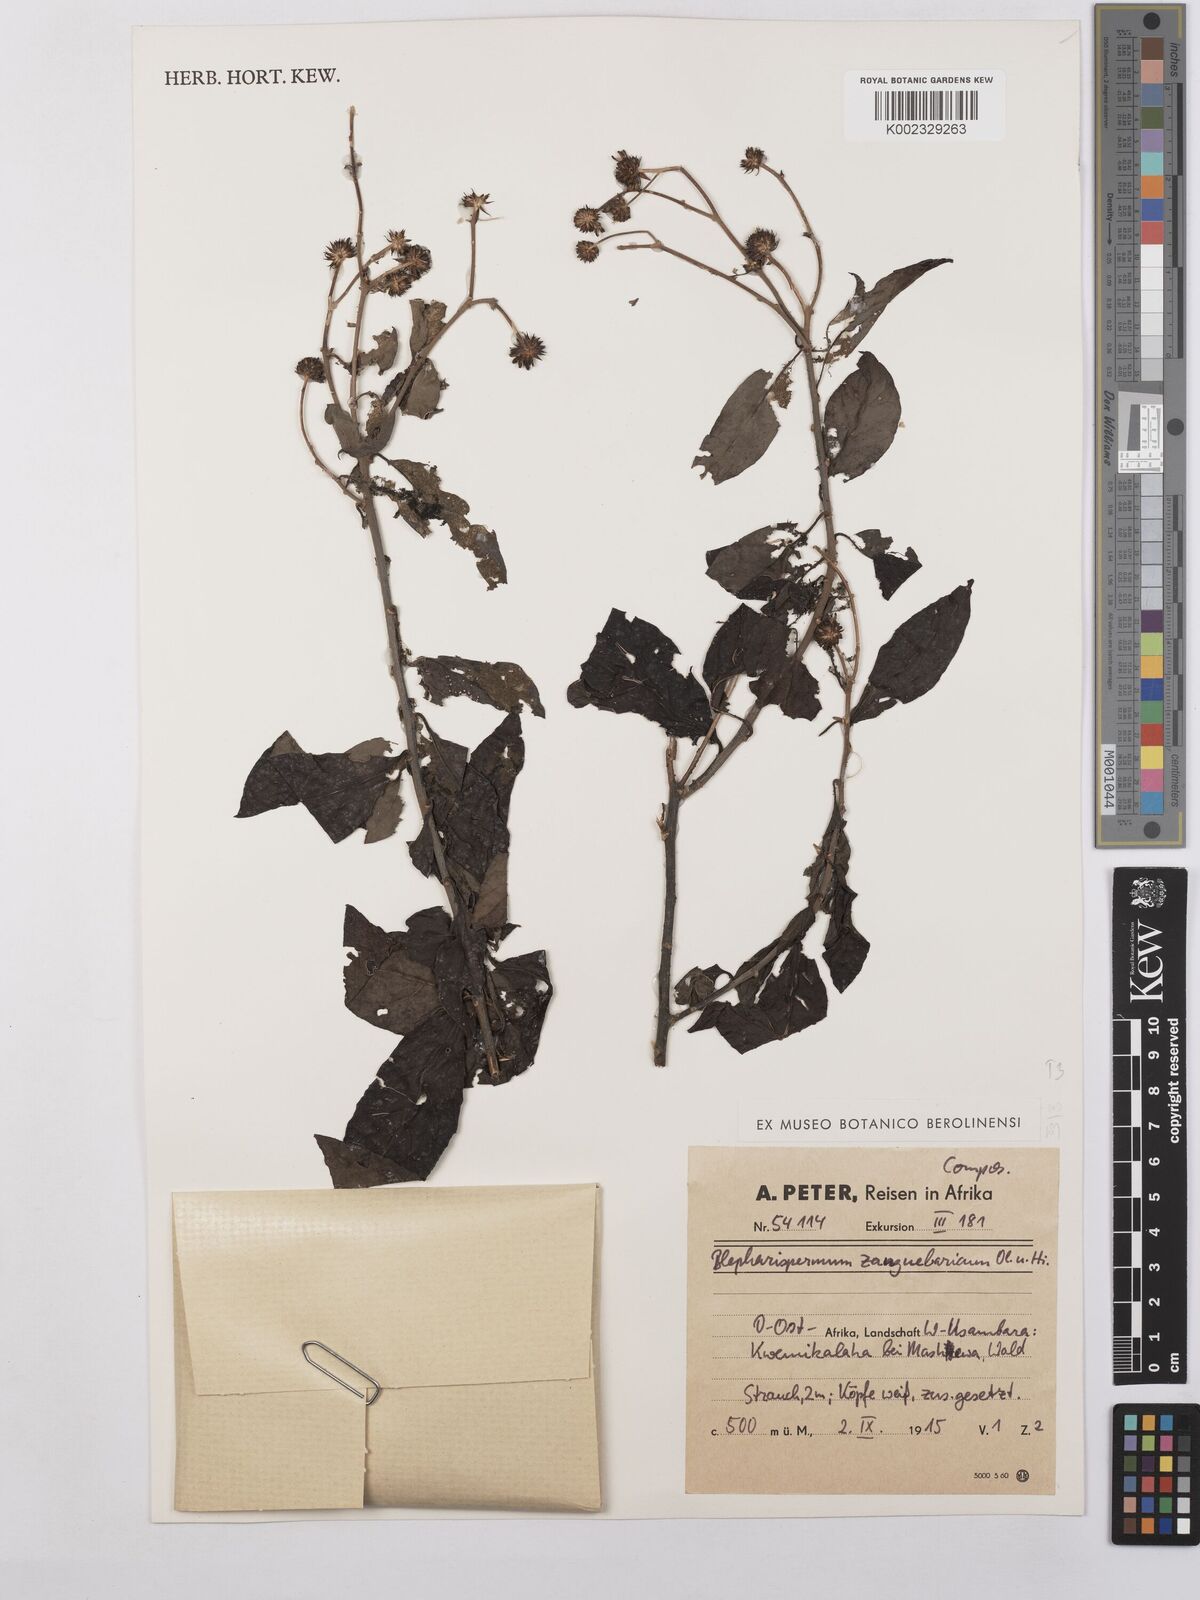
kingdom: Plantae
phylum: Tracheophyta
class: Magnoliopsida
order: Asterales
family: Asteraceae
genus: Blepharispermum
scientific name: Blepharispermum zanguebaricum
